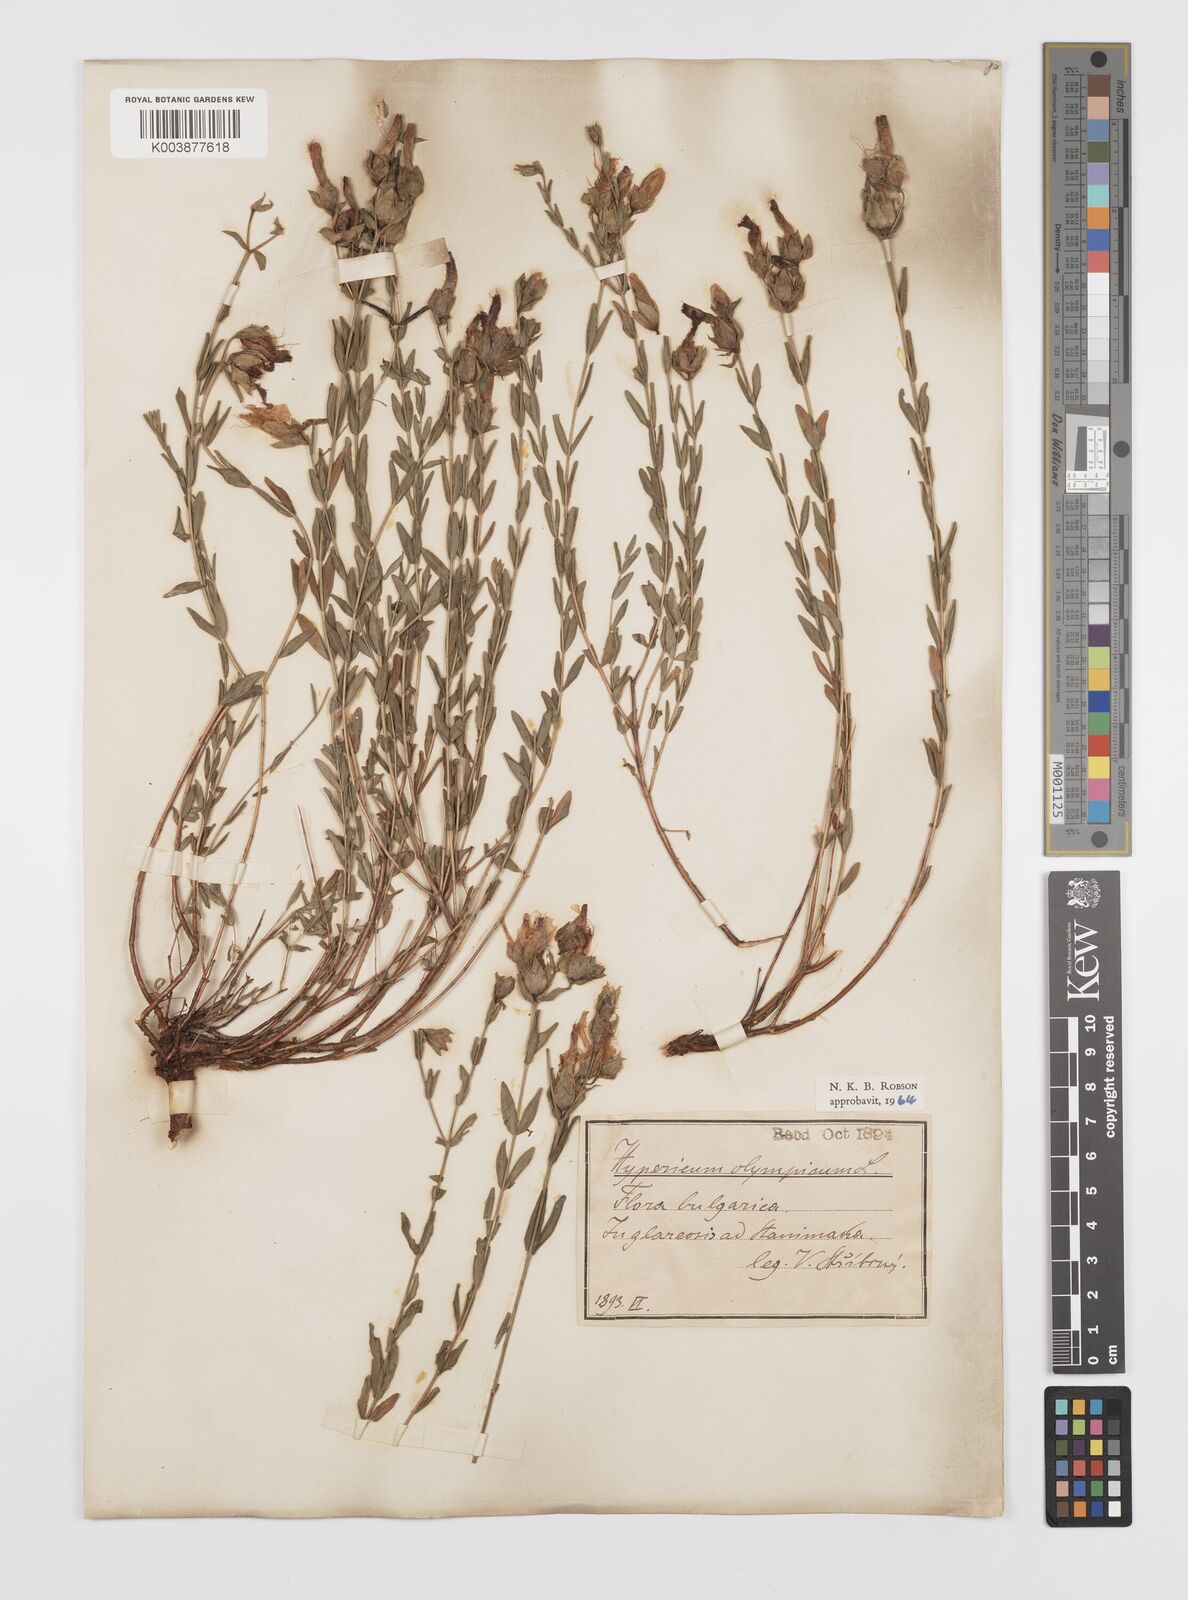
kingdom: Plantae
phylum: Tracheophyta
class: Magnoliopsida
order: Malpighiales
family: Hypericaceae
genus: Hypericum
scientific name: Hypericum olympicum
